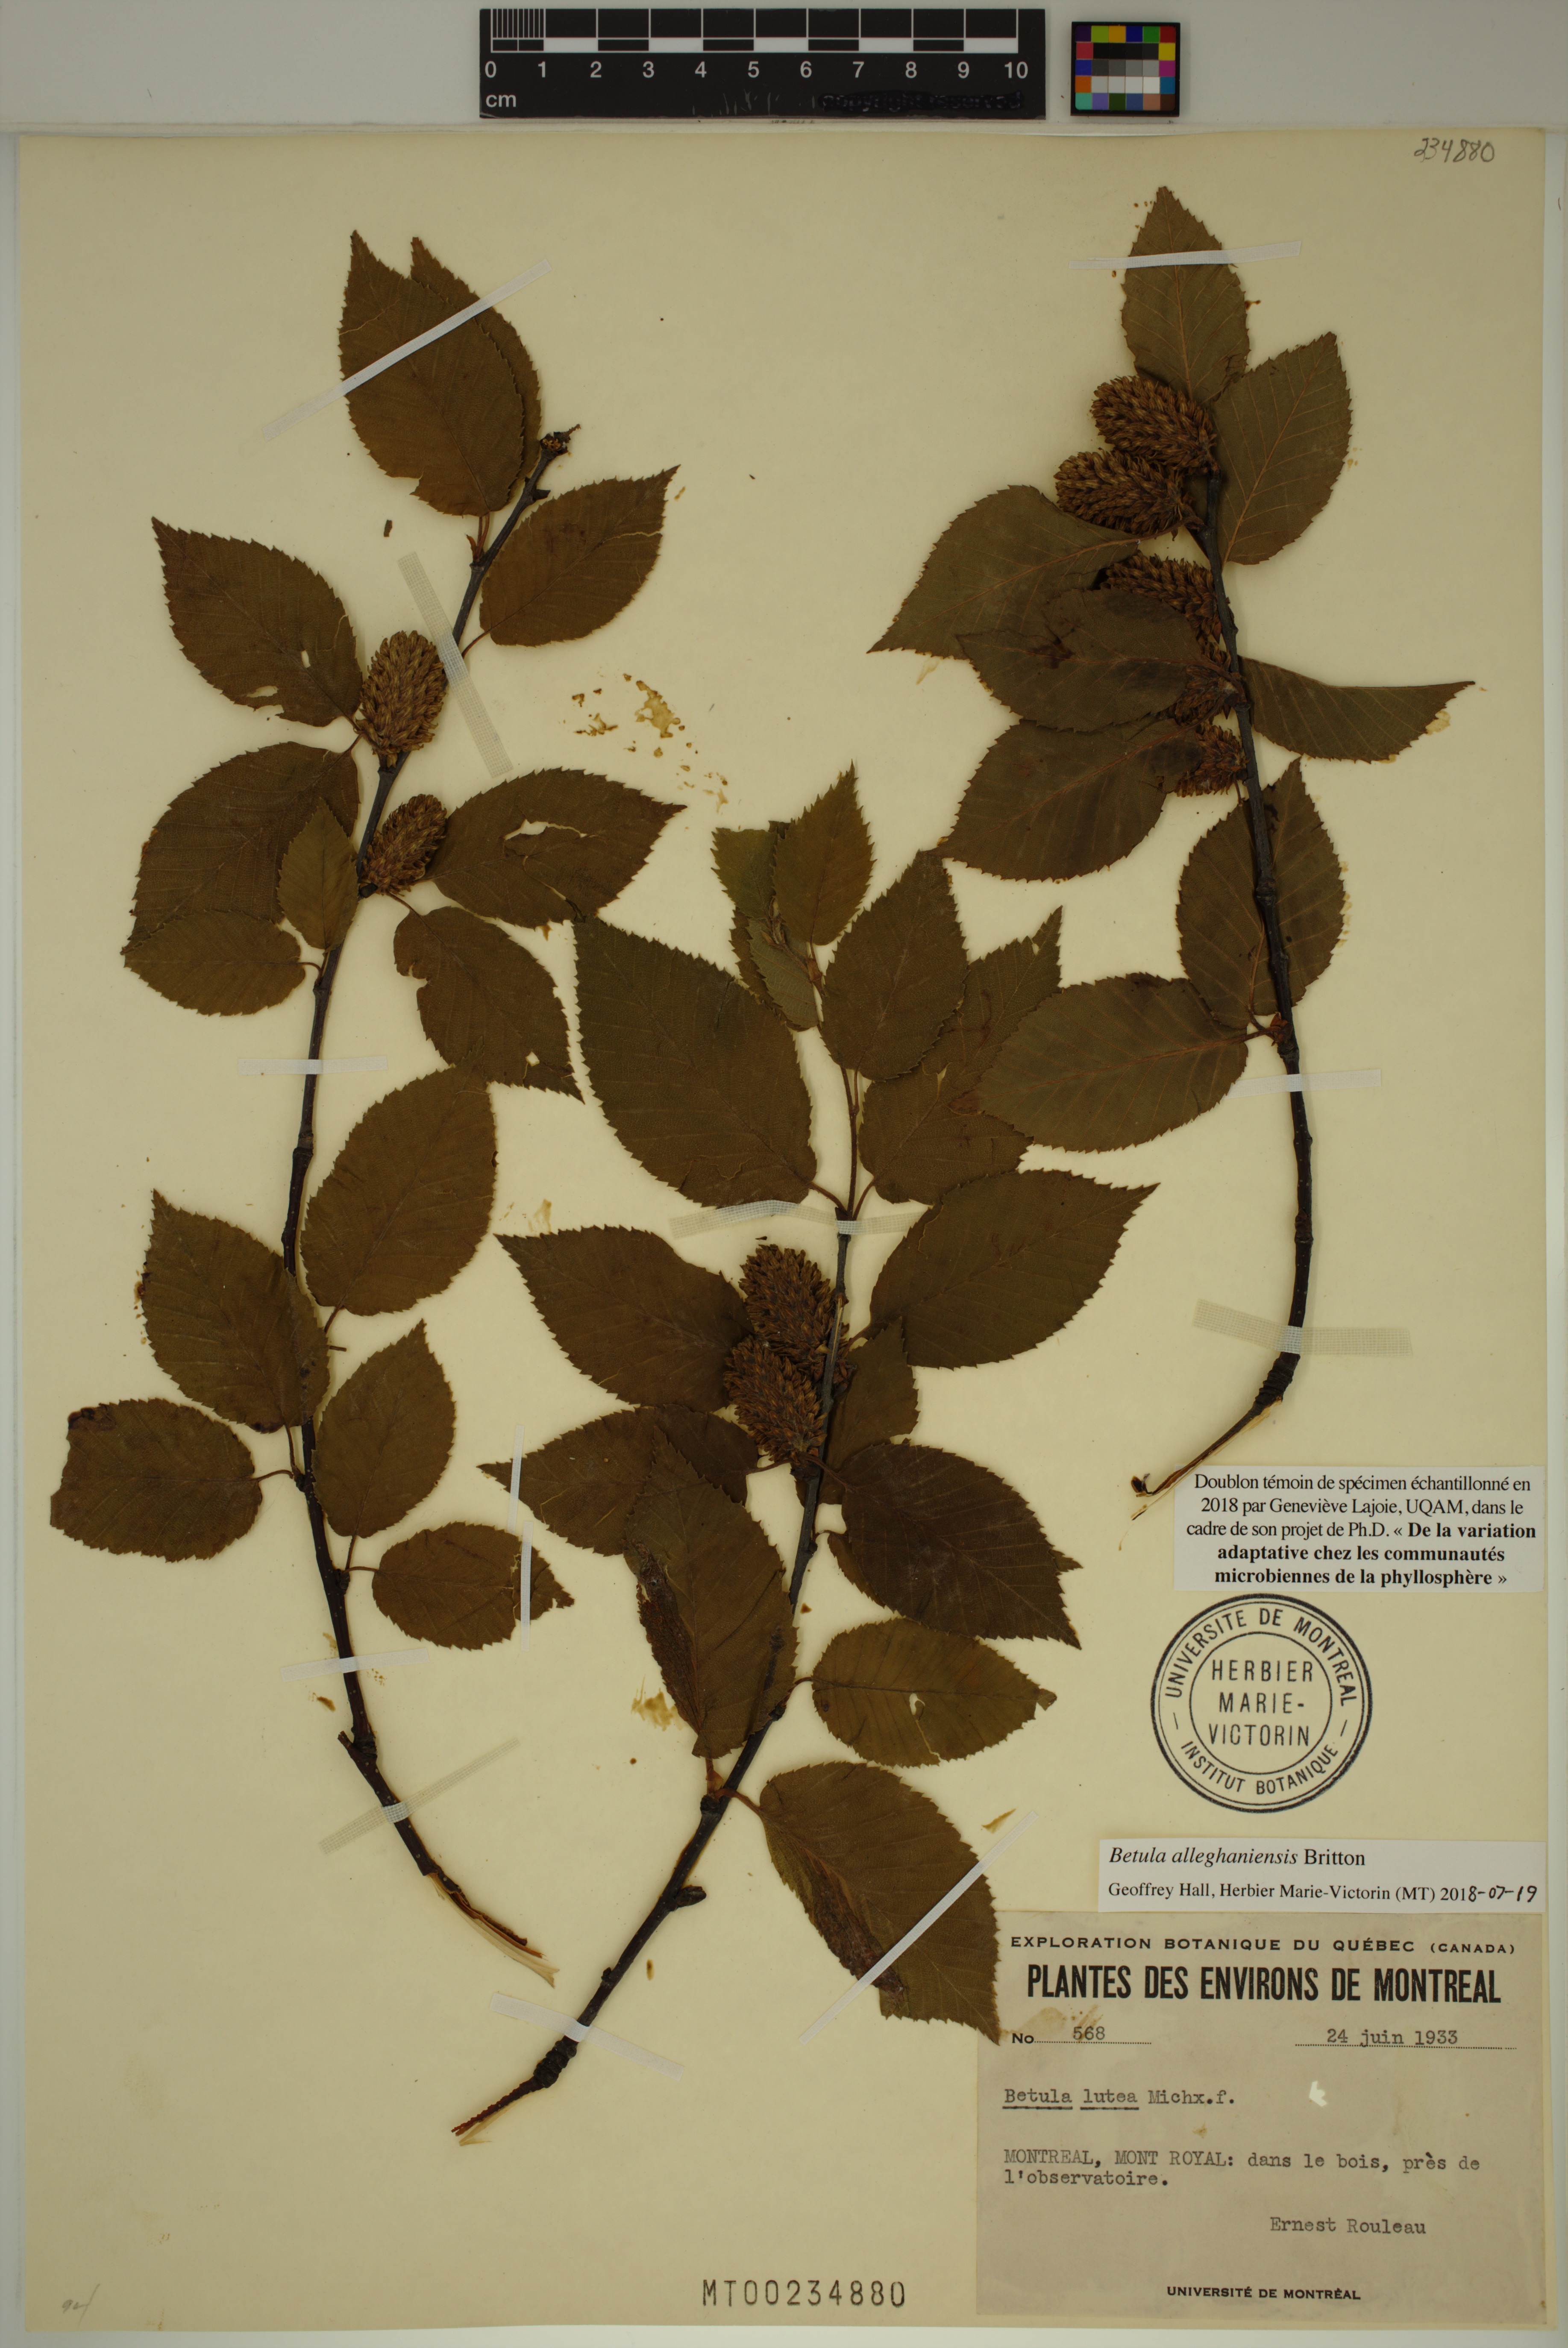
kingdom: Plantae
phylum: Tracheophyta
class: Magnoliopsida
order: Fagales
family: Betulaceae
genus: Betula
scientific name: Betula alleghaniensis
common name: Yellow birch
